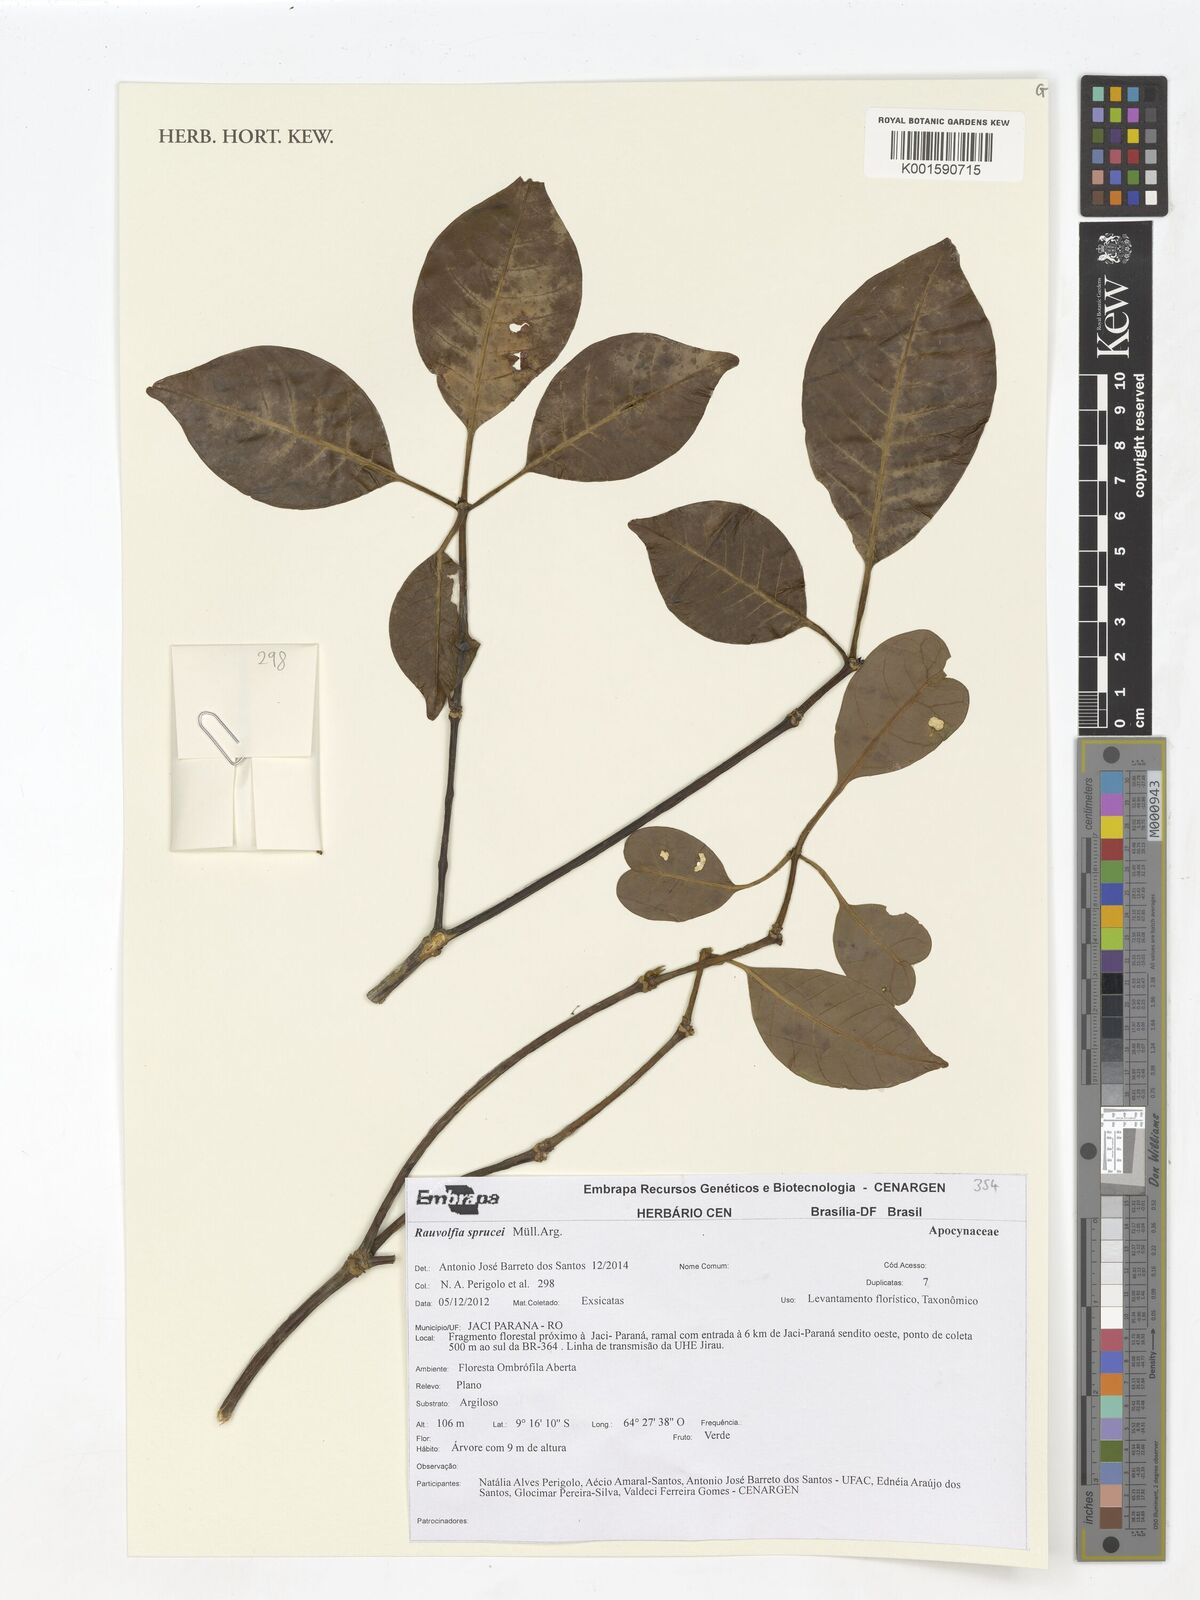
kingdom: Plantae
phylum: Tracheophyta
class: Magnoliopsida
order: Gentianales
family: Apocynaceae
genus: Rauvolfia
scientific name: Rauvolfia sprucei
